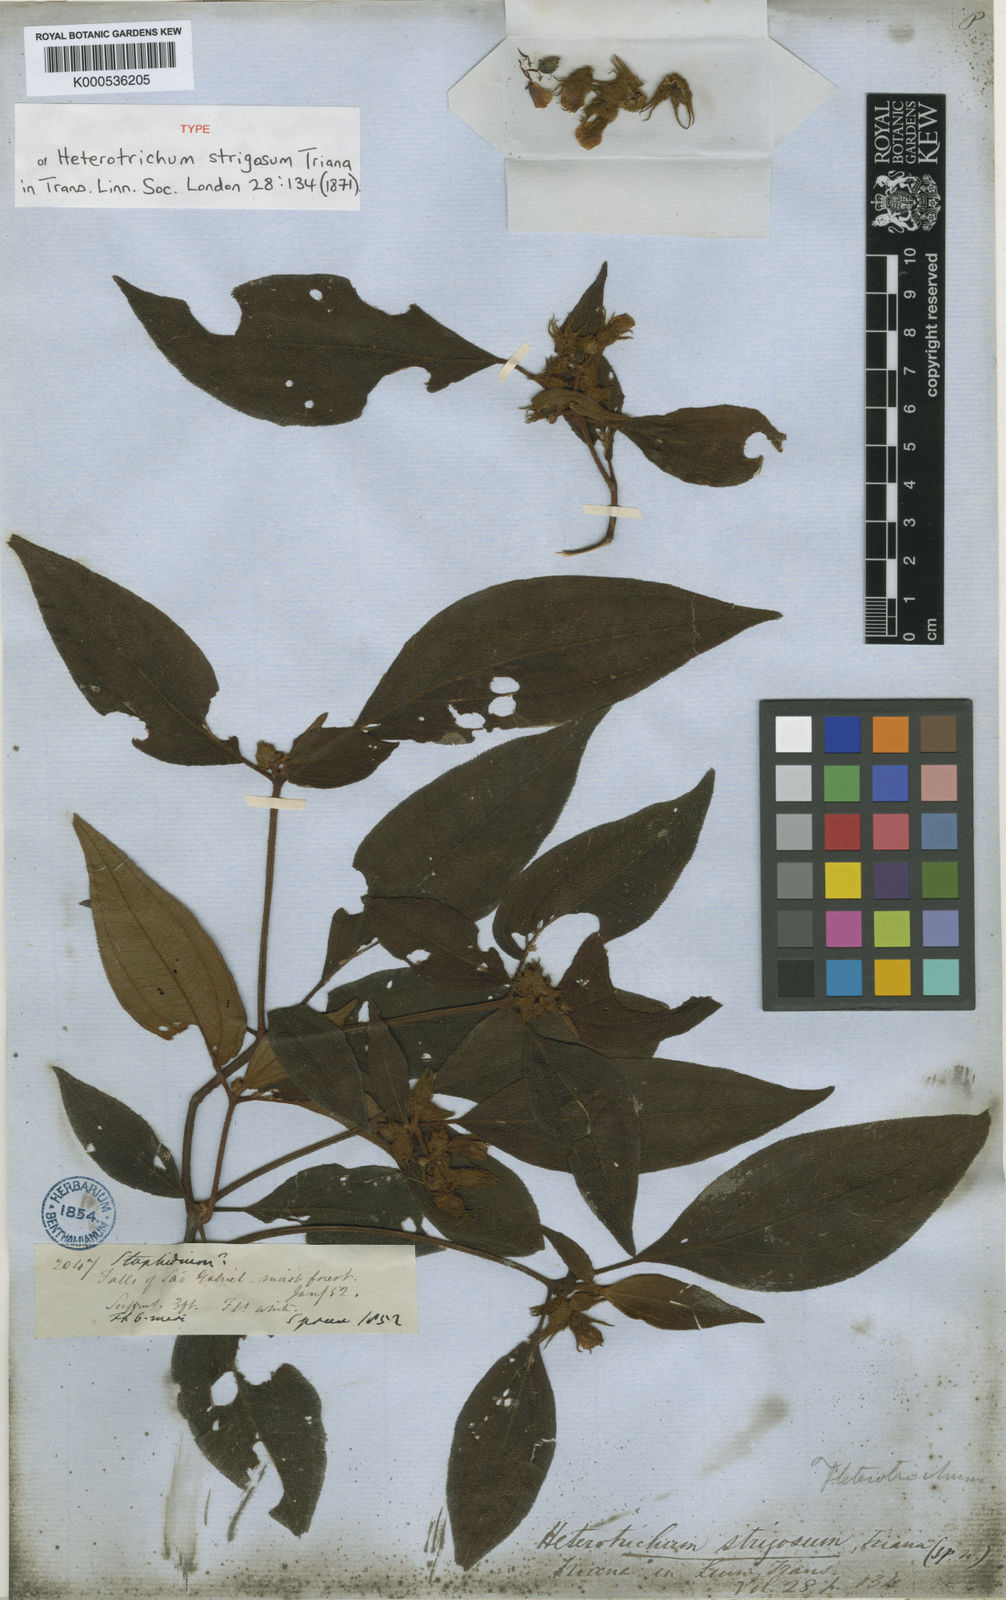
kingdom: Plantae
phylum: Tracheophyta
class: Magnoliopsida
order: Myrtales
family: Melastomataceae
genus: Miconia
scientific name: Miconia strigosa
